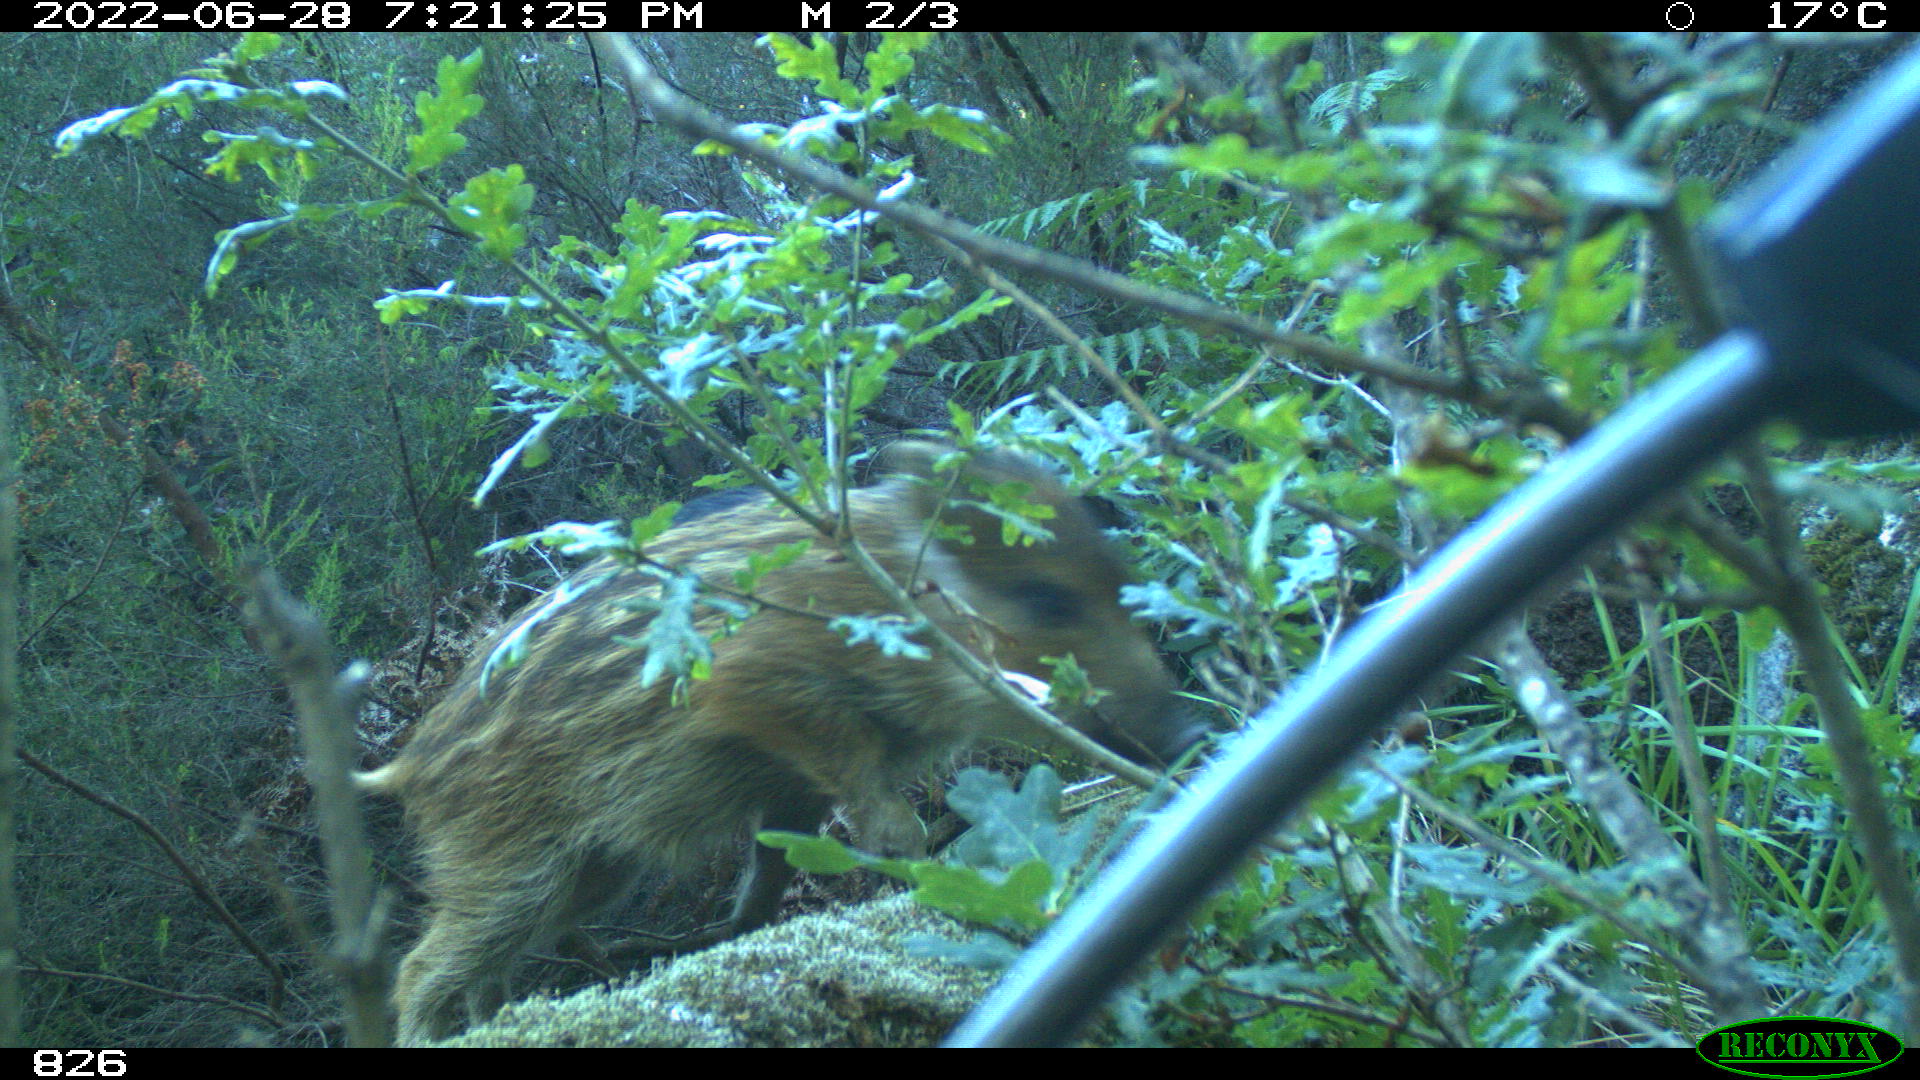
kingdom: Animalia
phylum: Chordata
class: Mammalia
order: Artiodactyla
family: Suidae
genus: Sus
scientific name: Sus scrofa
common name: Wild boar
